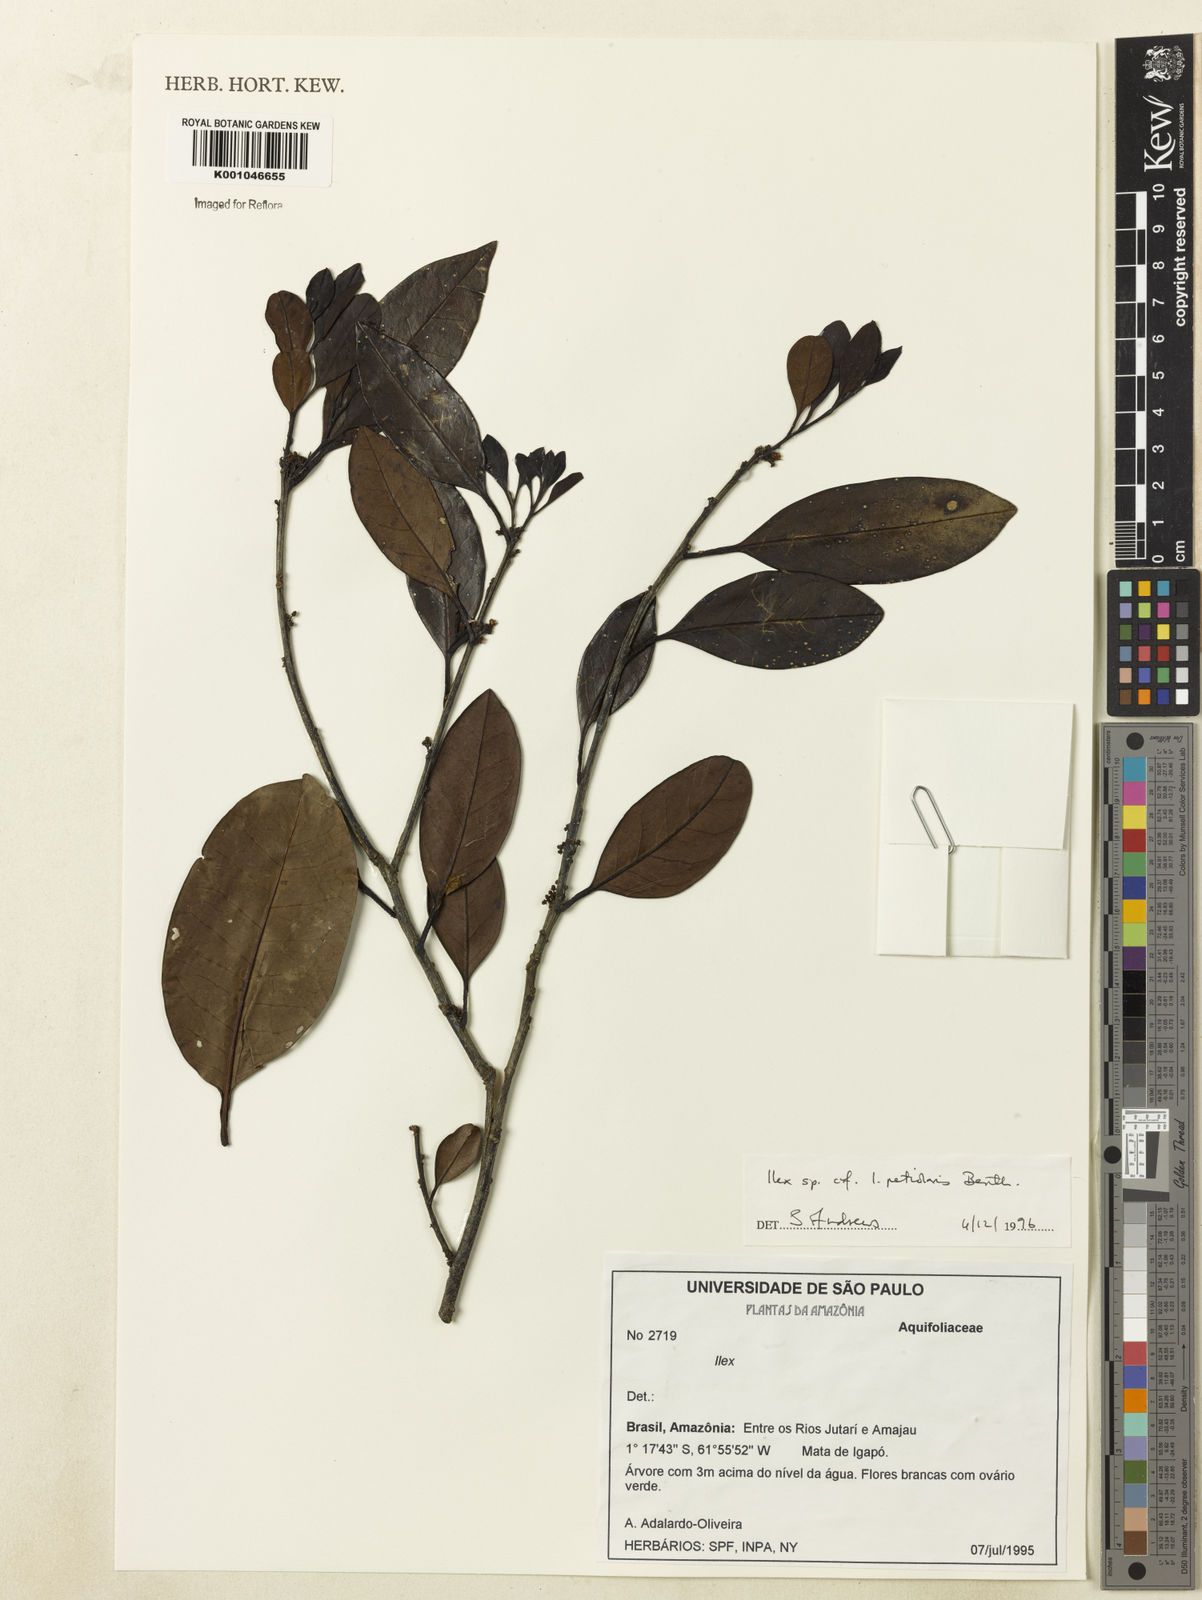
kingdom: Plantae
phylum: Tracheophyta
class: Magnoliopsida
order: Aquifoliales
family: Aquifoliaceae
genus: Ilex
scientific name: Ilex petiolaris
